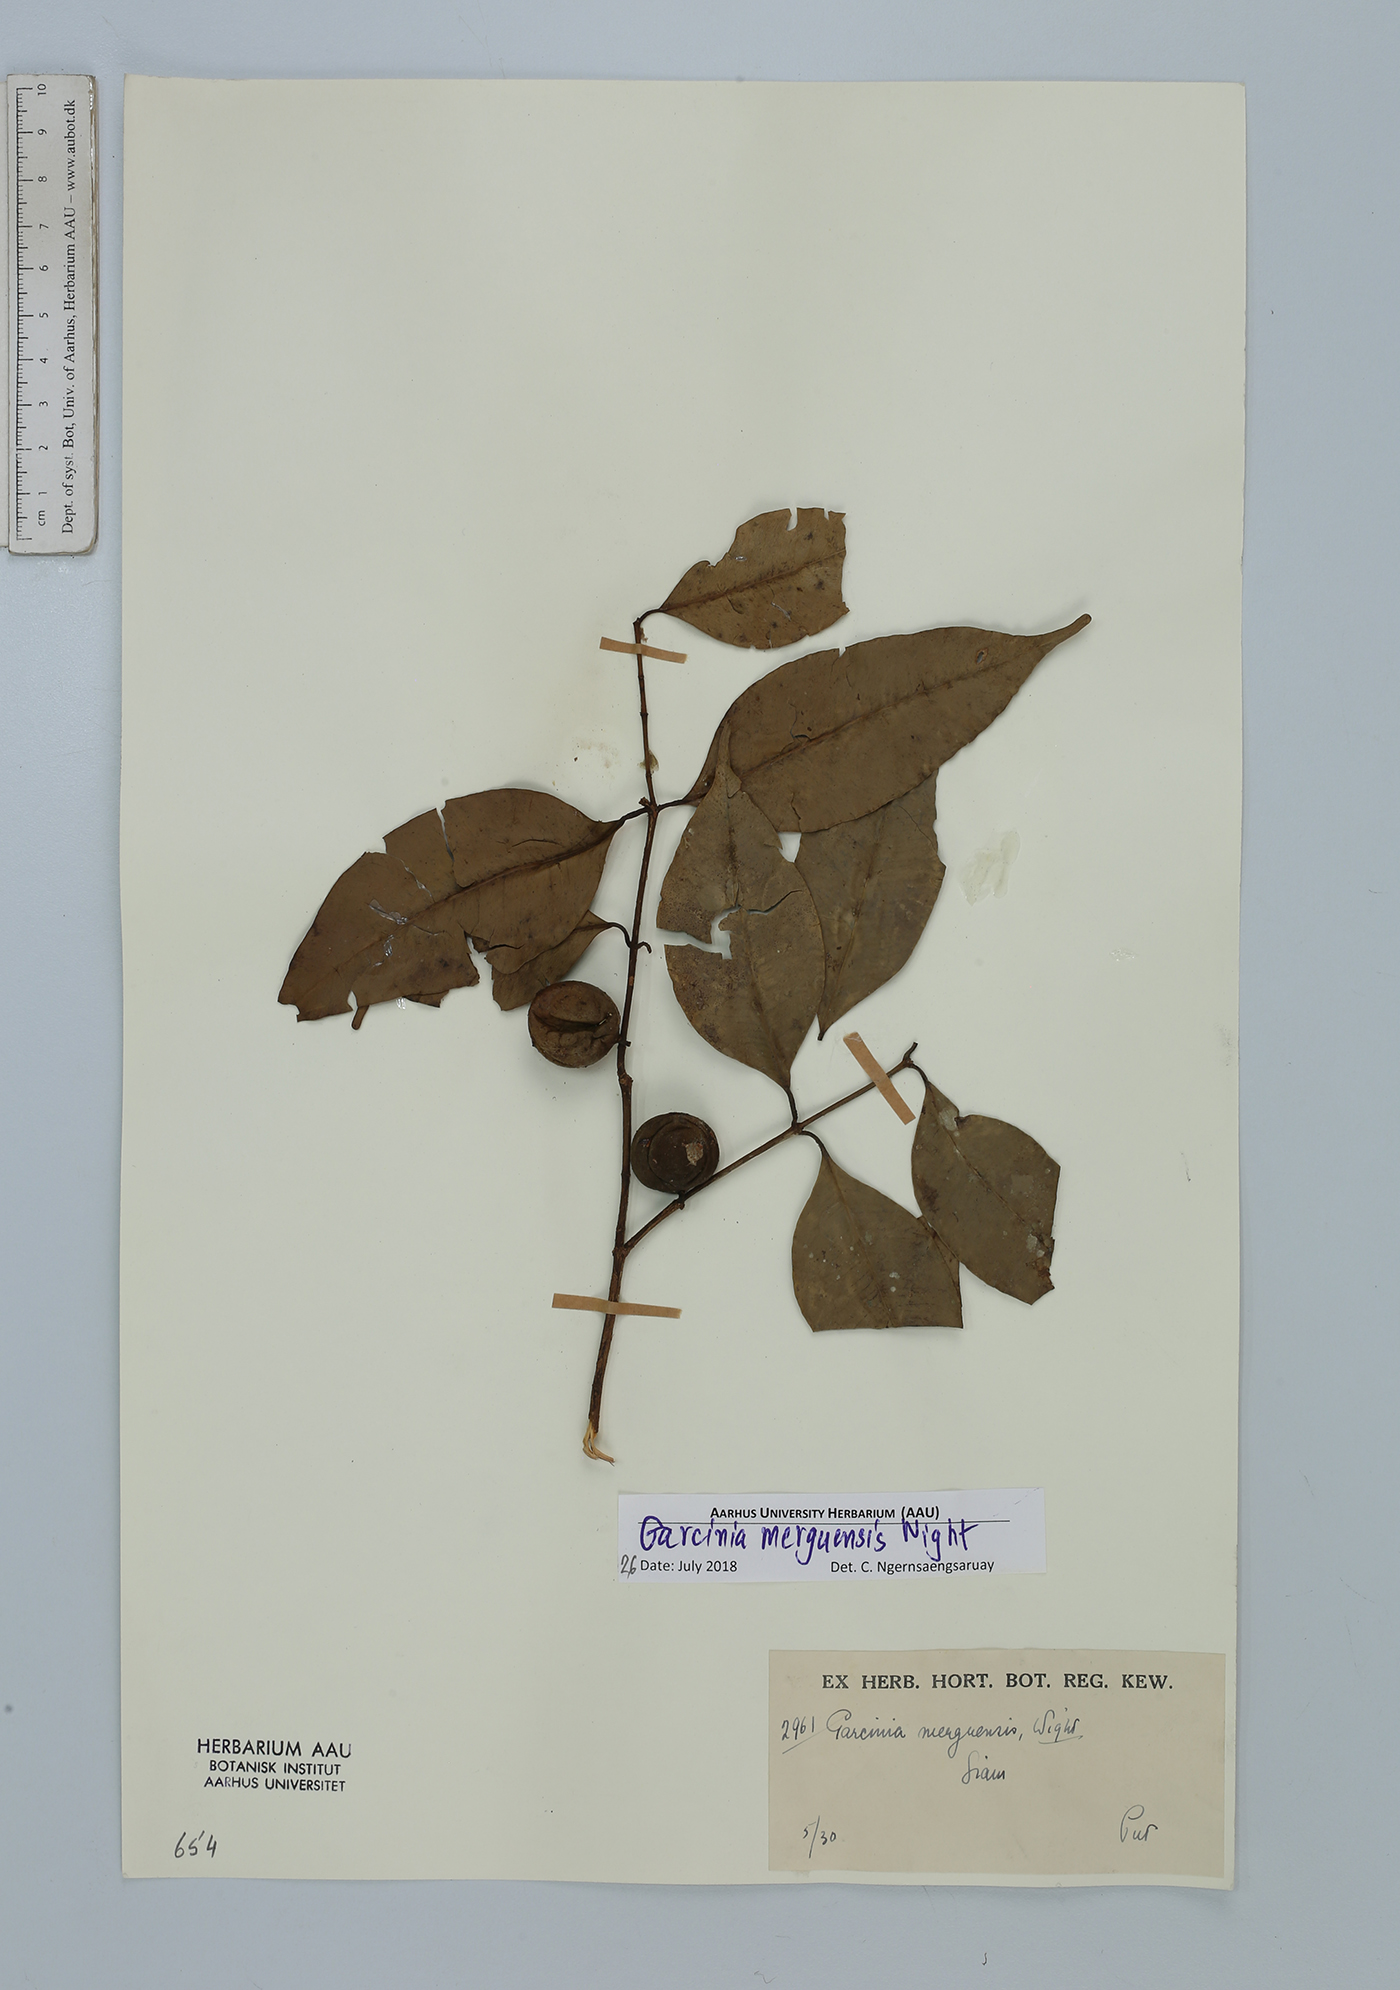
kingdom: Plantae
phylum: Tracheophyta
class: Magnoliopsida
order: Malpighiales
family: Clusiaceae
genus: Garcinia
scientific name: Garcinia merguensis
